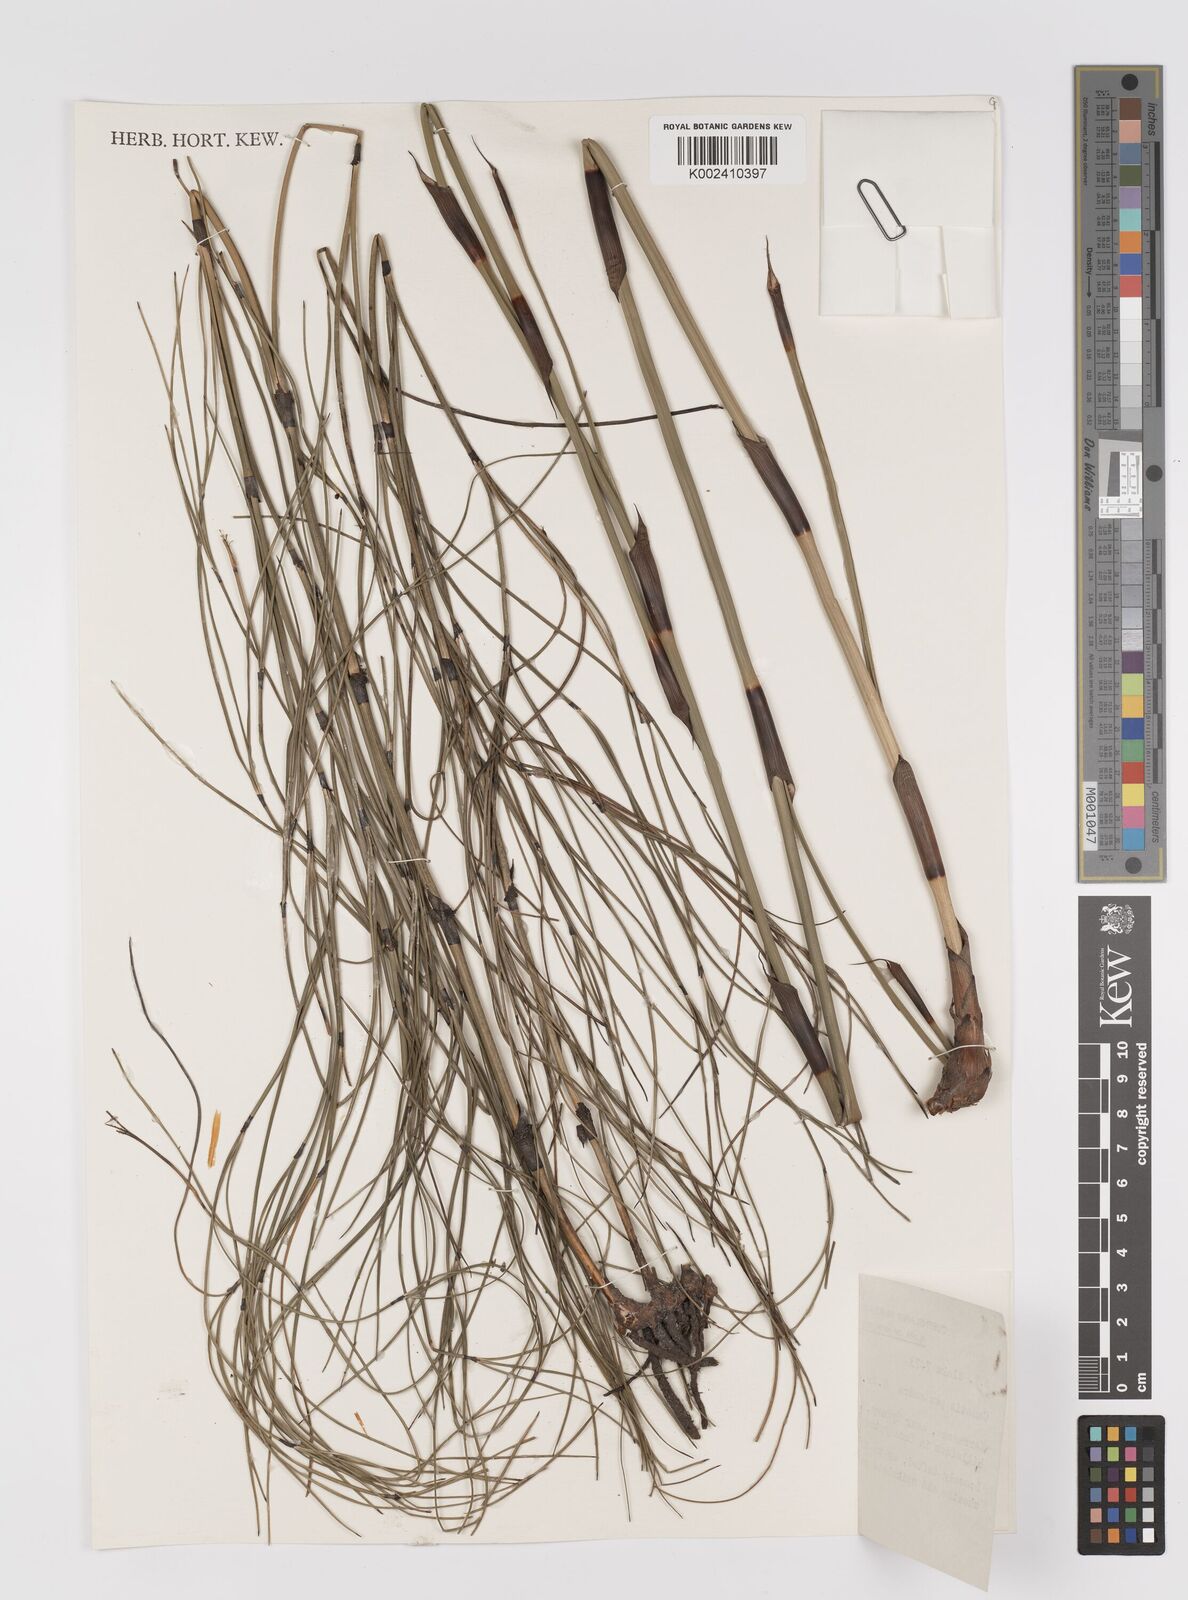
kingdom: Plantae
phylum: Tracheophyta
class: Liliopsida
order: Poales
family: Cyperaceae
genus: Caustis
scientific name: Caustis pentandra
